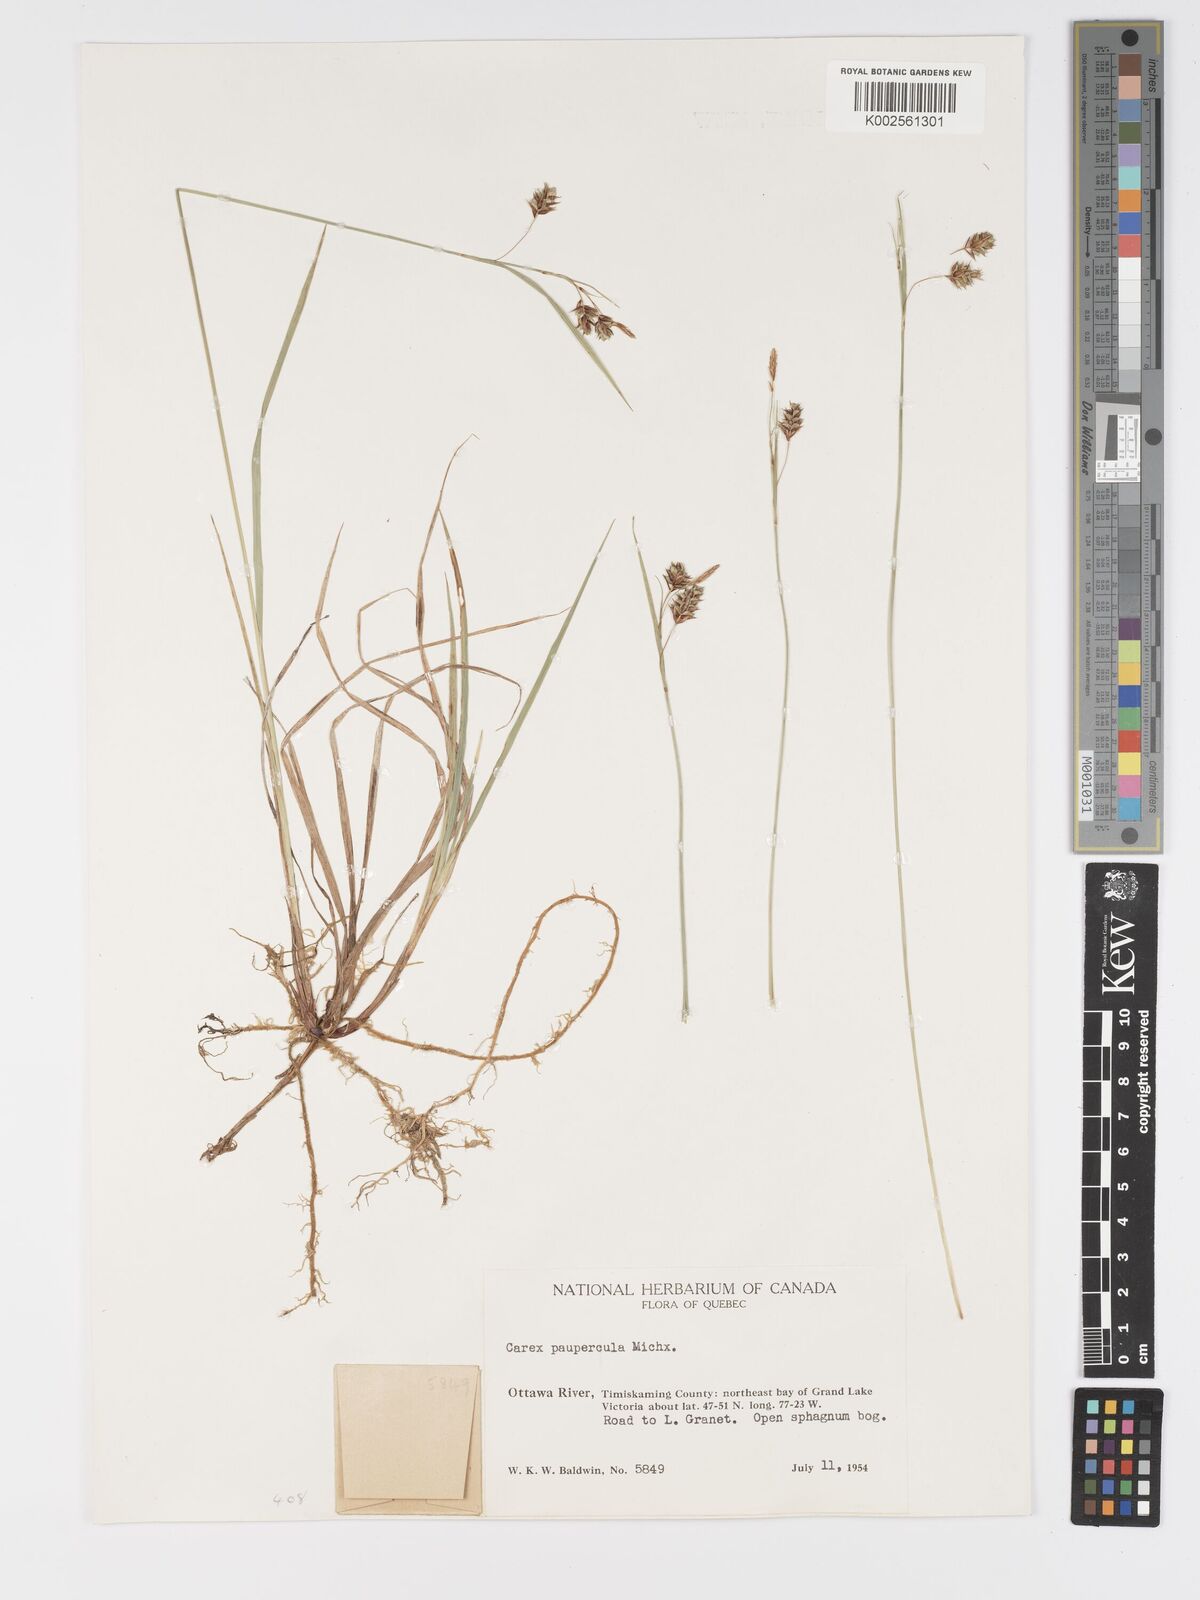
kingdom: Plantae
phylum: Tracheophyta
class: Liliopsida
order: Poales
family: Cyperaceae
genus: Carex
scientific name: Carex magellanica
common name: Bog sedge
